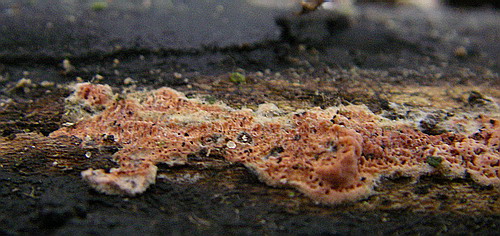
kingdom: Fungi
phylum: Basidiomycota
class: Agaricomycetes
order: Polyporales
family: Irpicaceae
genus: Ceriporia
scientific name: Ceriporia purpurea
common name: purpur-voksporesvamp
